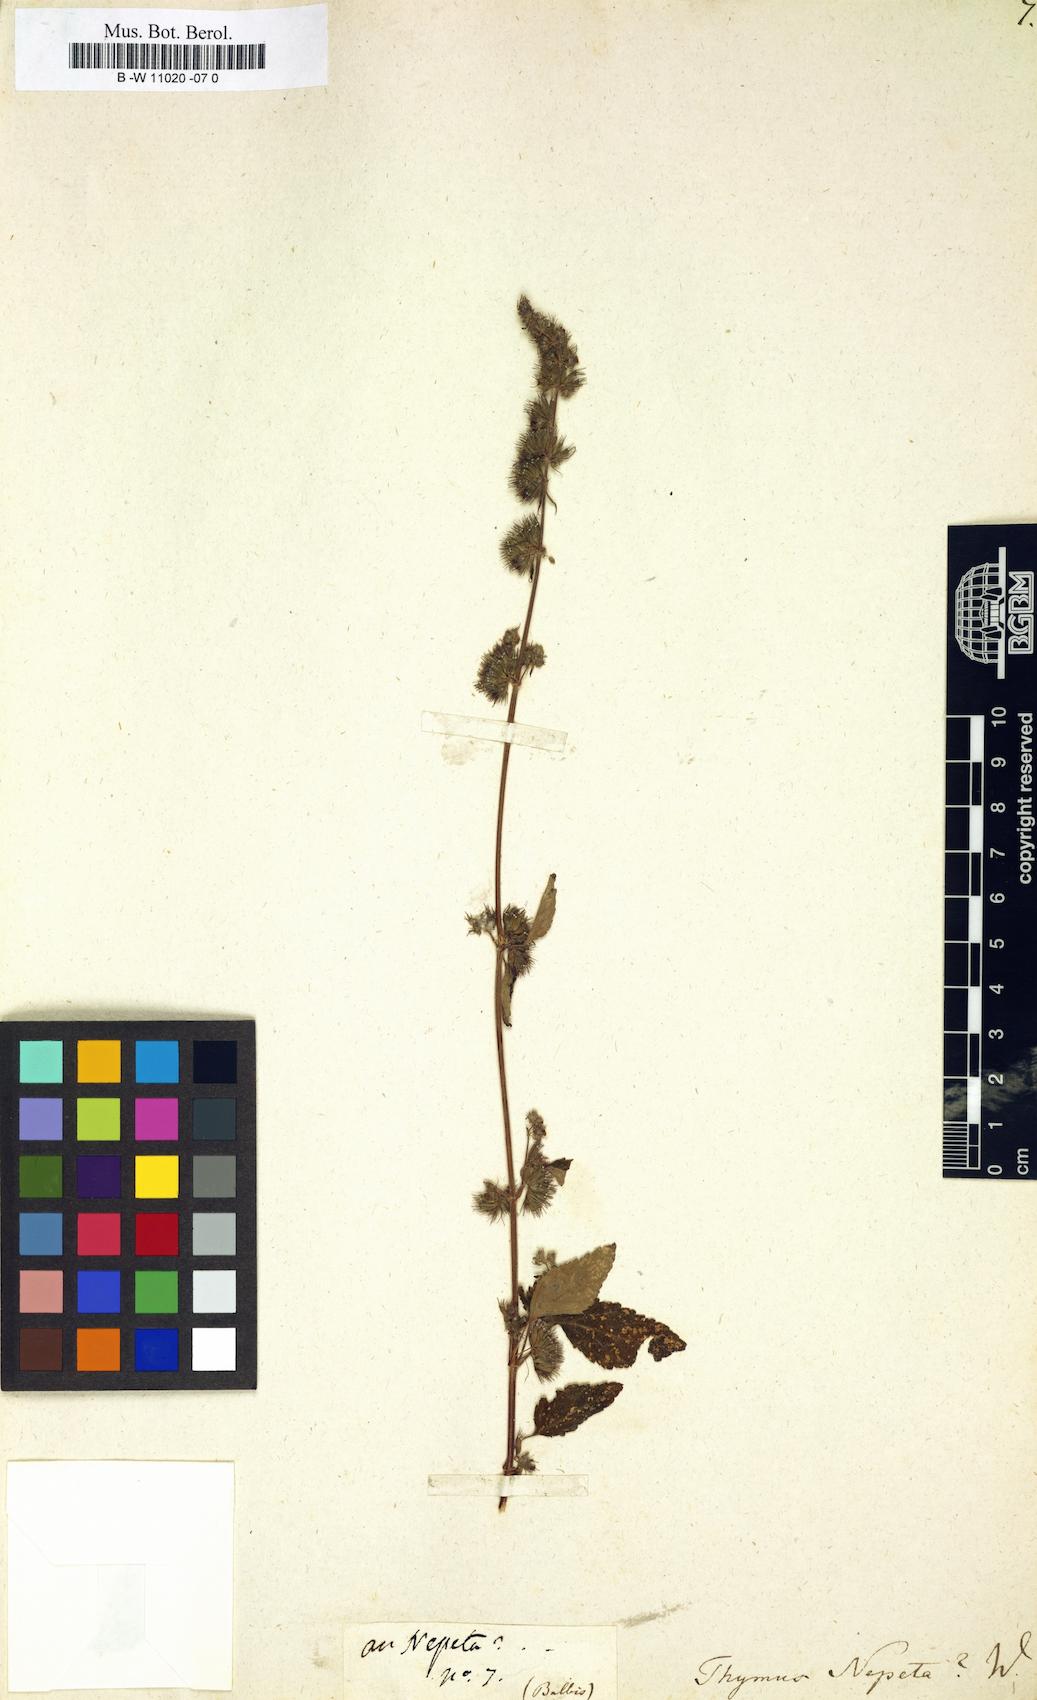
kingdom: Plantae
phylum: Tracheophyta
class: Magnoliopsida
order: Lamiales
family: Lamiaceae
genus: Clinopodium
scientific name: Clinopodium nepeta
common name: Lesser calamint
